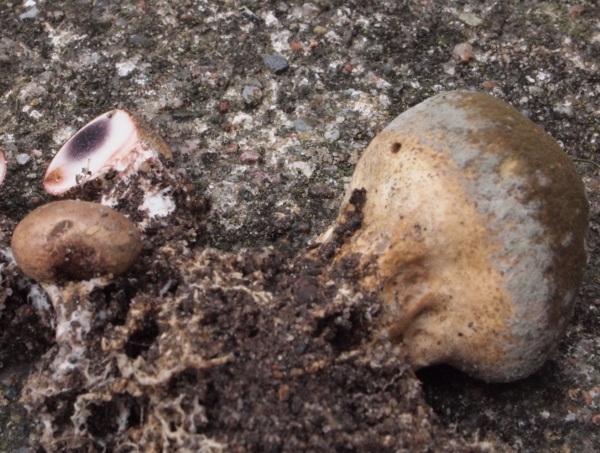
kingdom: Fungi
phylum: Basidiomycota
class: Agaricomycetes
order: Boletales
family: Sclerodermataceae
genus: Scleroderma
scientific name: Scleroderma verrucosum
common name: stilket bruskbold
